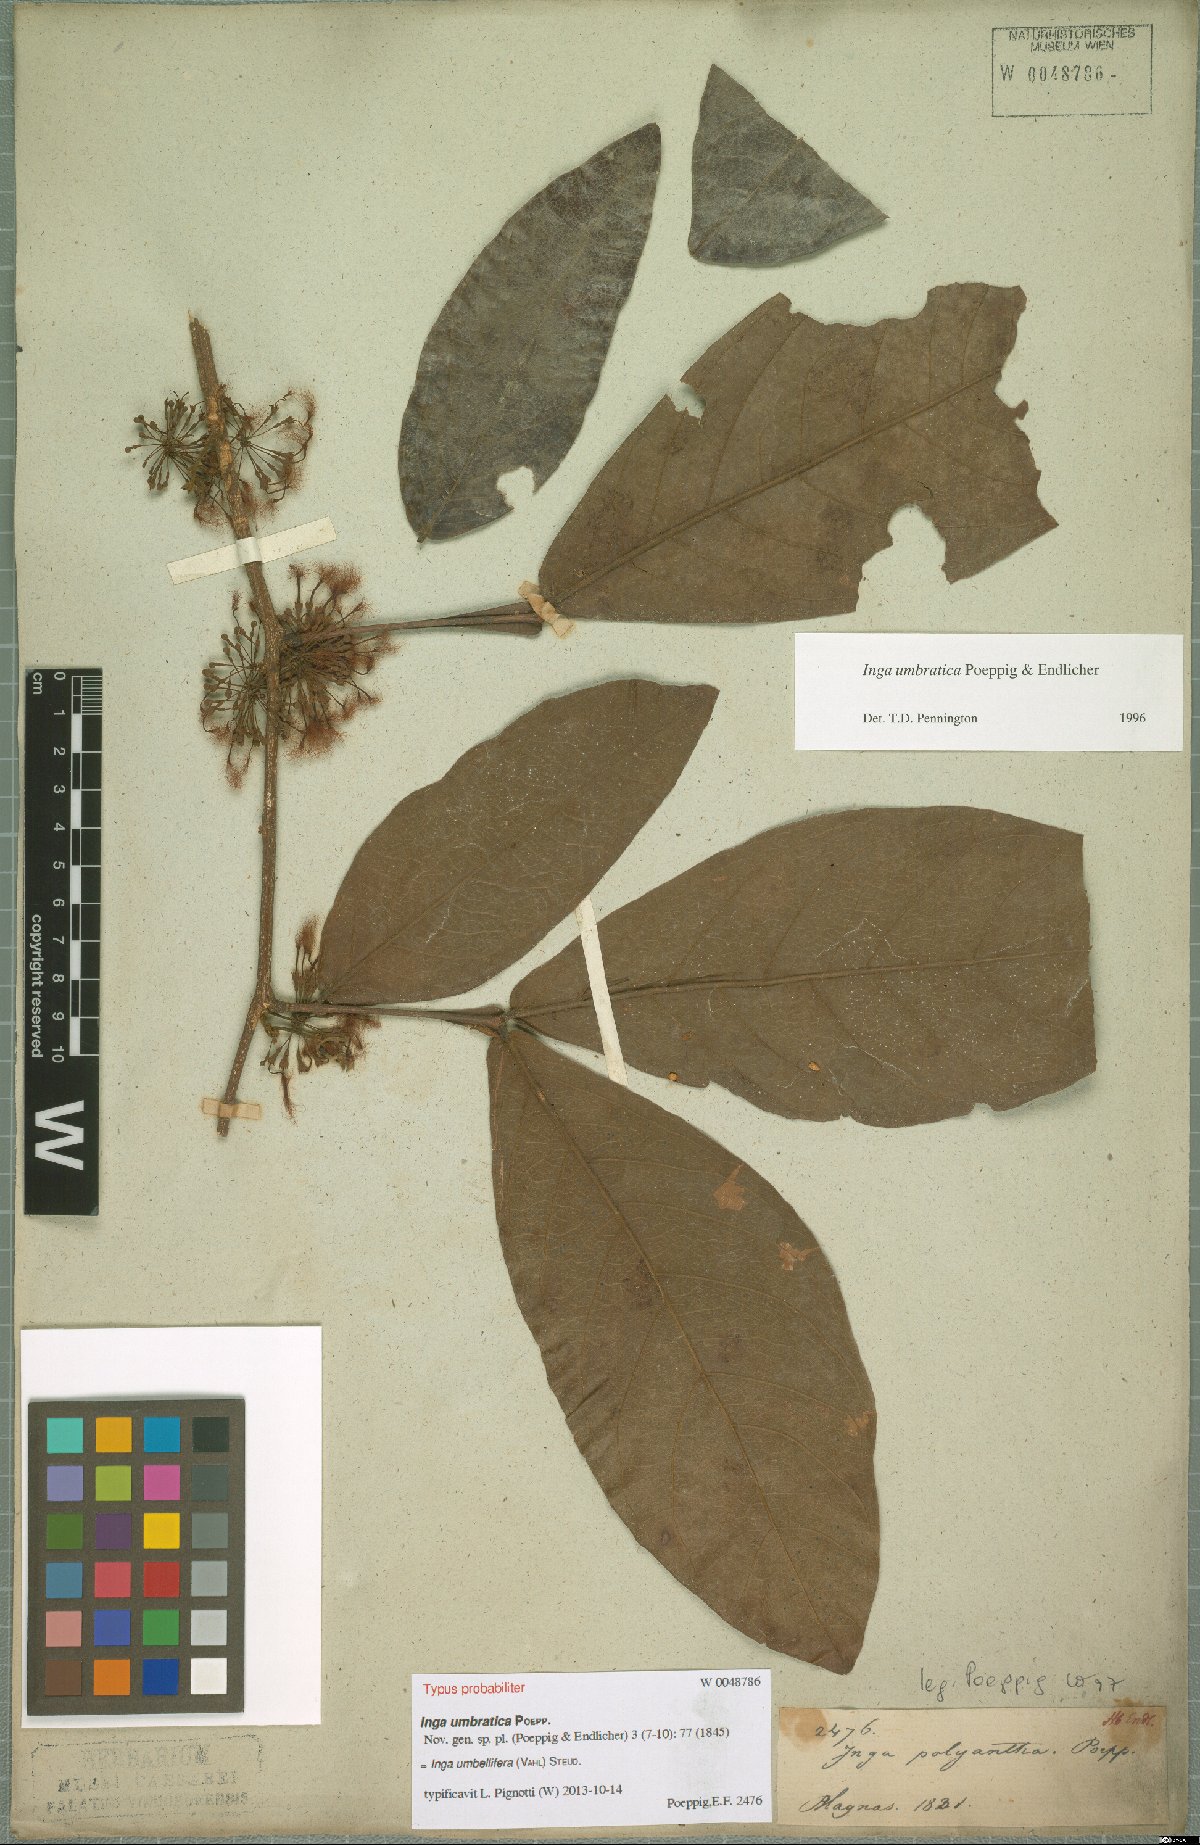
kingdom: Plantae
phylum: Tracheophyta
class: Magnoliopsida
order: Fabales
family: Fabaceae
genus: Inga
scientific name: Inga umbellifera
